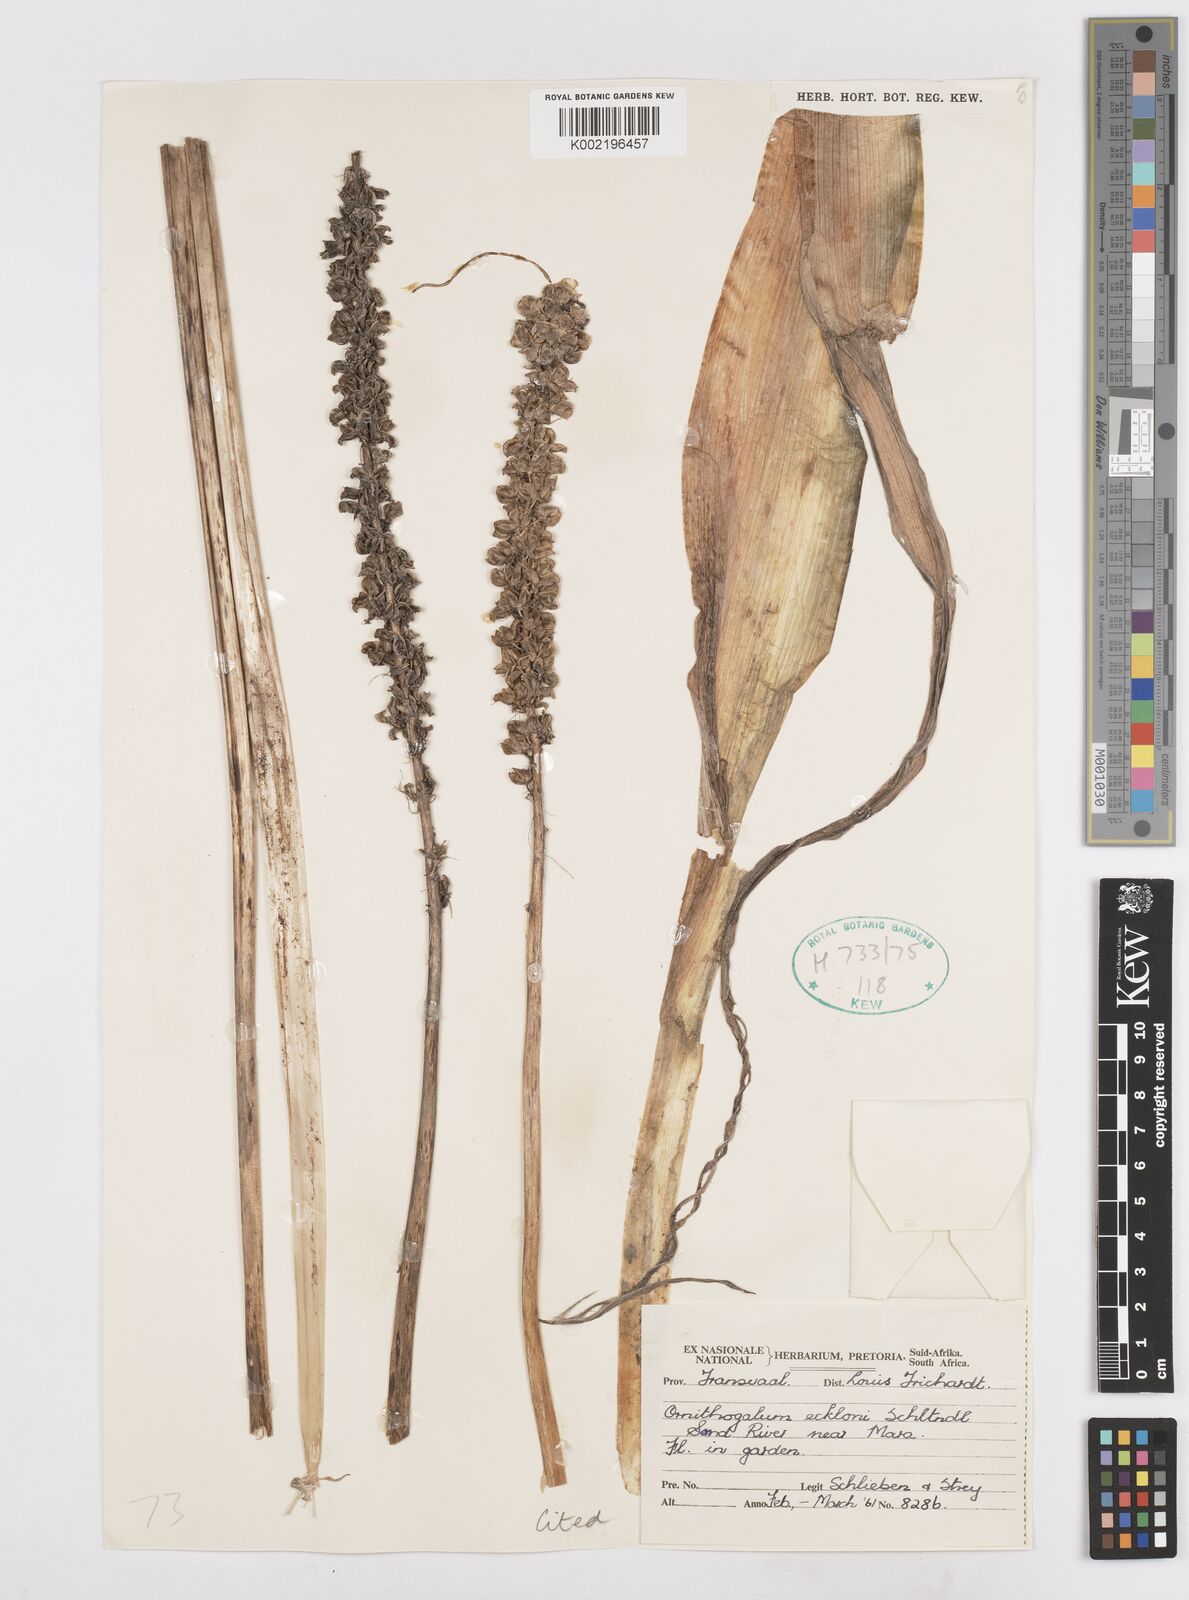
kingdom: Plantae
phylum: Tracheophyta
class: Liliopsida
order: Asparagales
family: Asparagaceae
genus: Albuca
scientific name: Albuca virens
